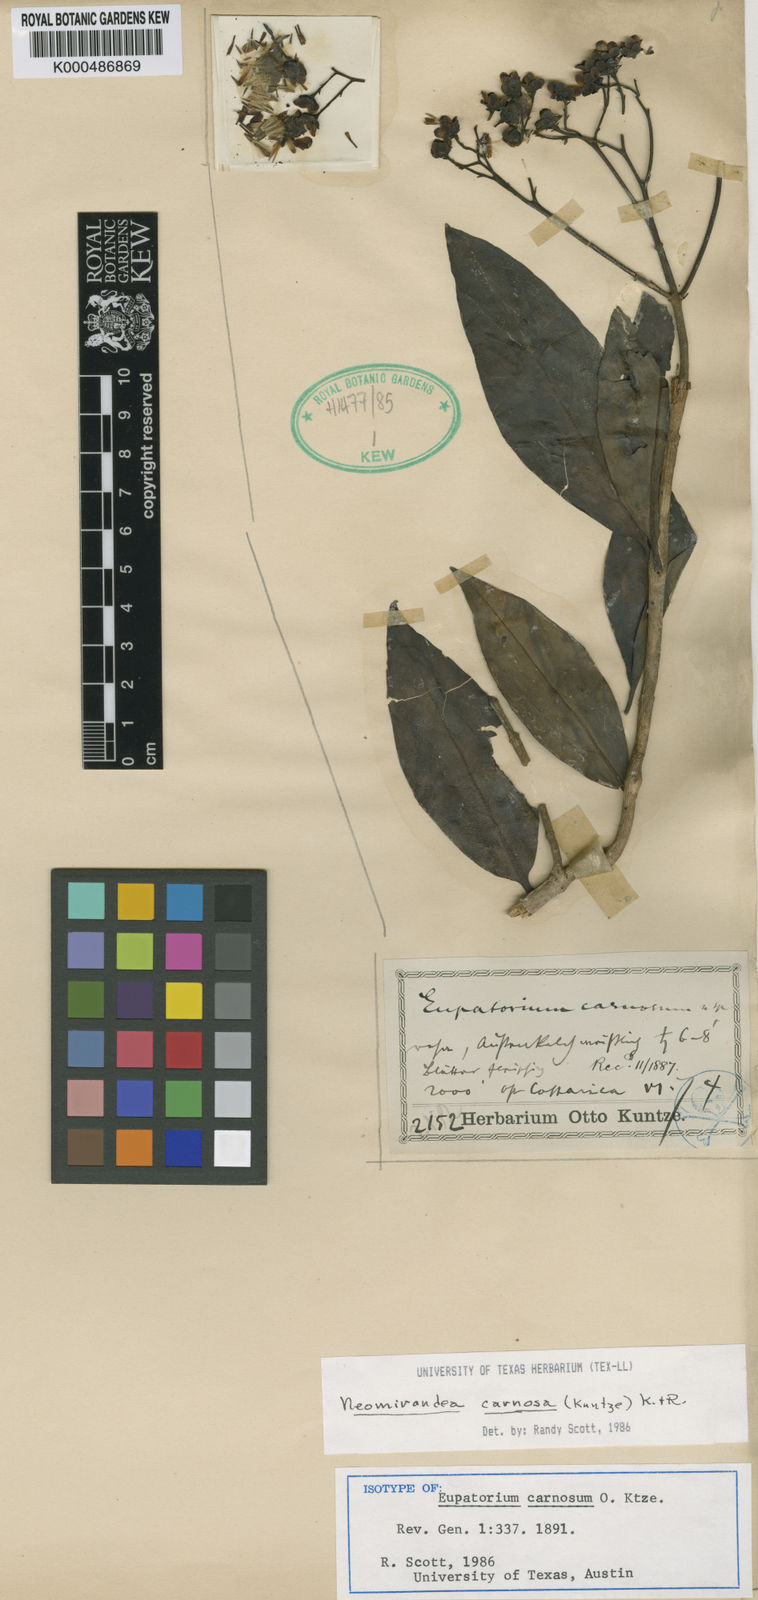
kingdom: Plantae
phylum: Tracheophyta
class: Magnoliopsida
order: Asterales
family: Asteraceae
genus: Neomirandea
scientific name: Neomirandea carnosa
